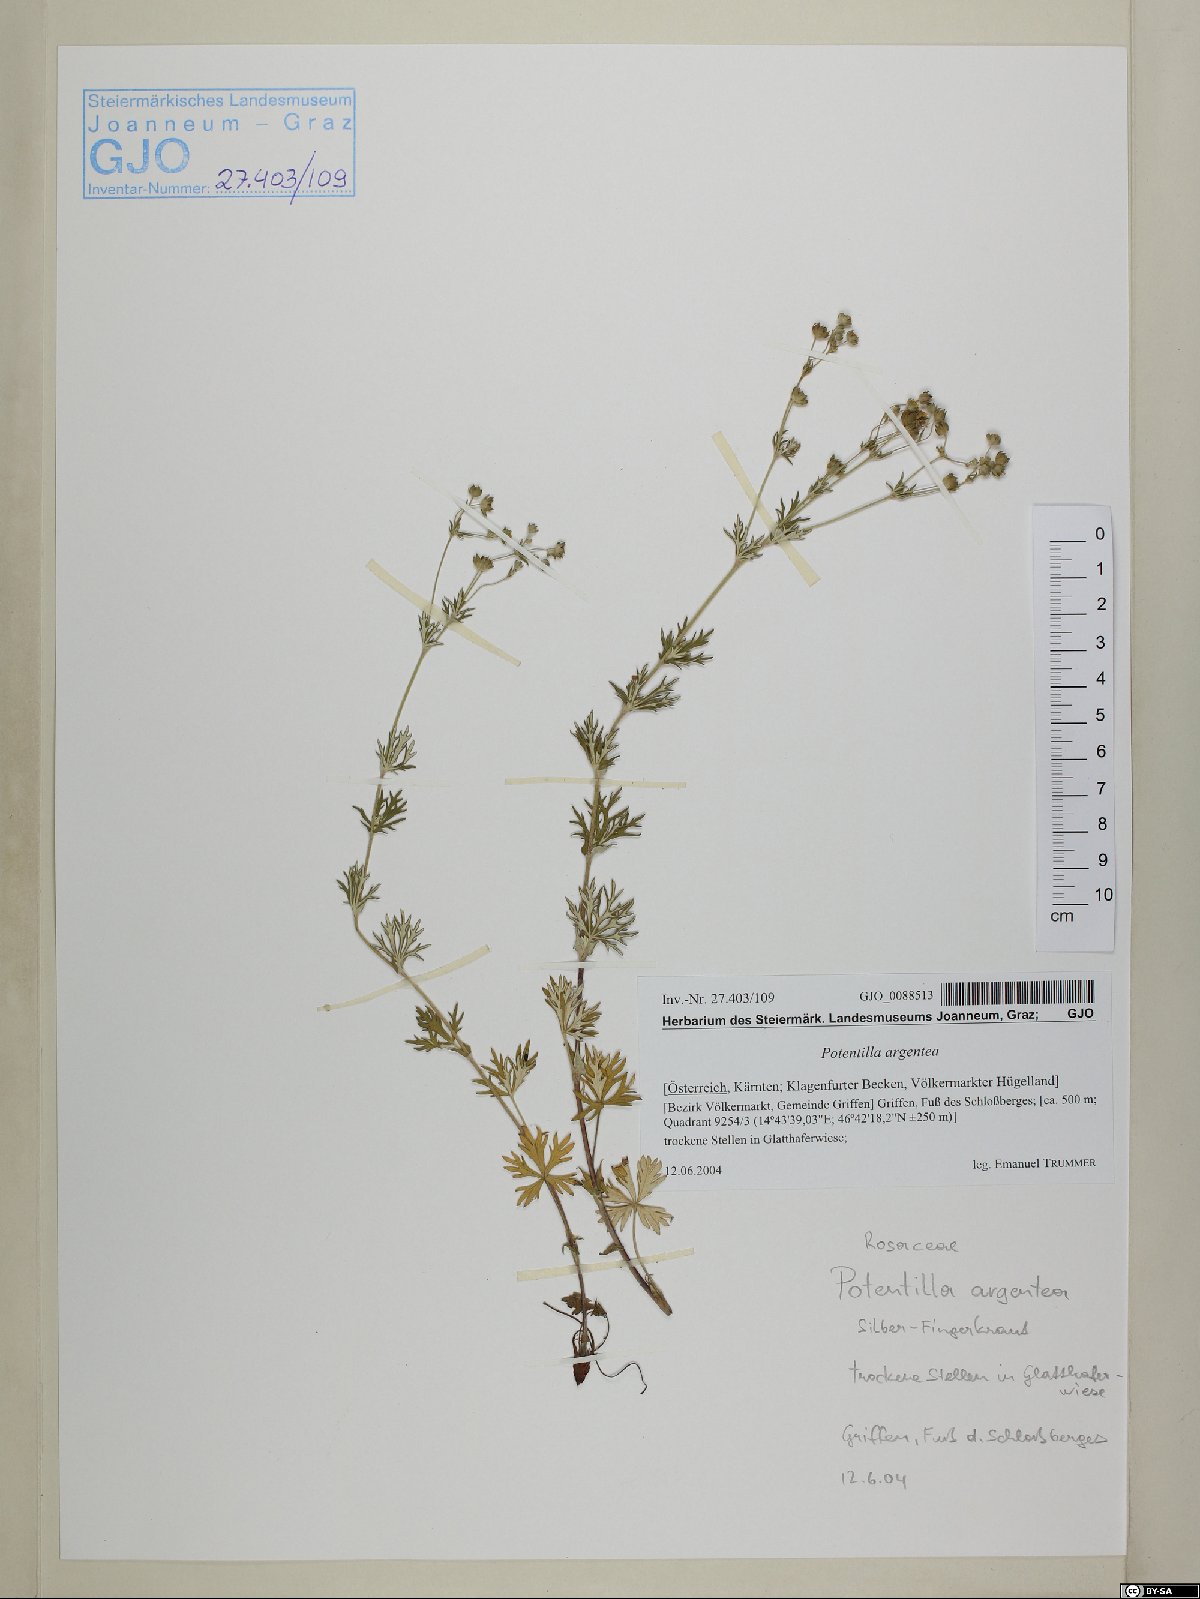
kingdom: Plantae
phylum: Tracheophyta
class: Magnoliopsida
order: Rosales
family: Rosaceae
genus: Potentilla
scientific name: Potentilla argentea
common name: Hoary cinquefoil
